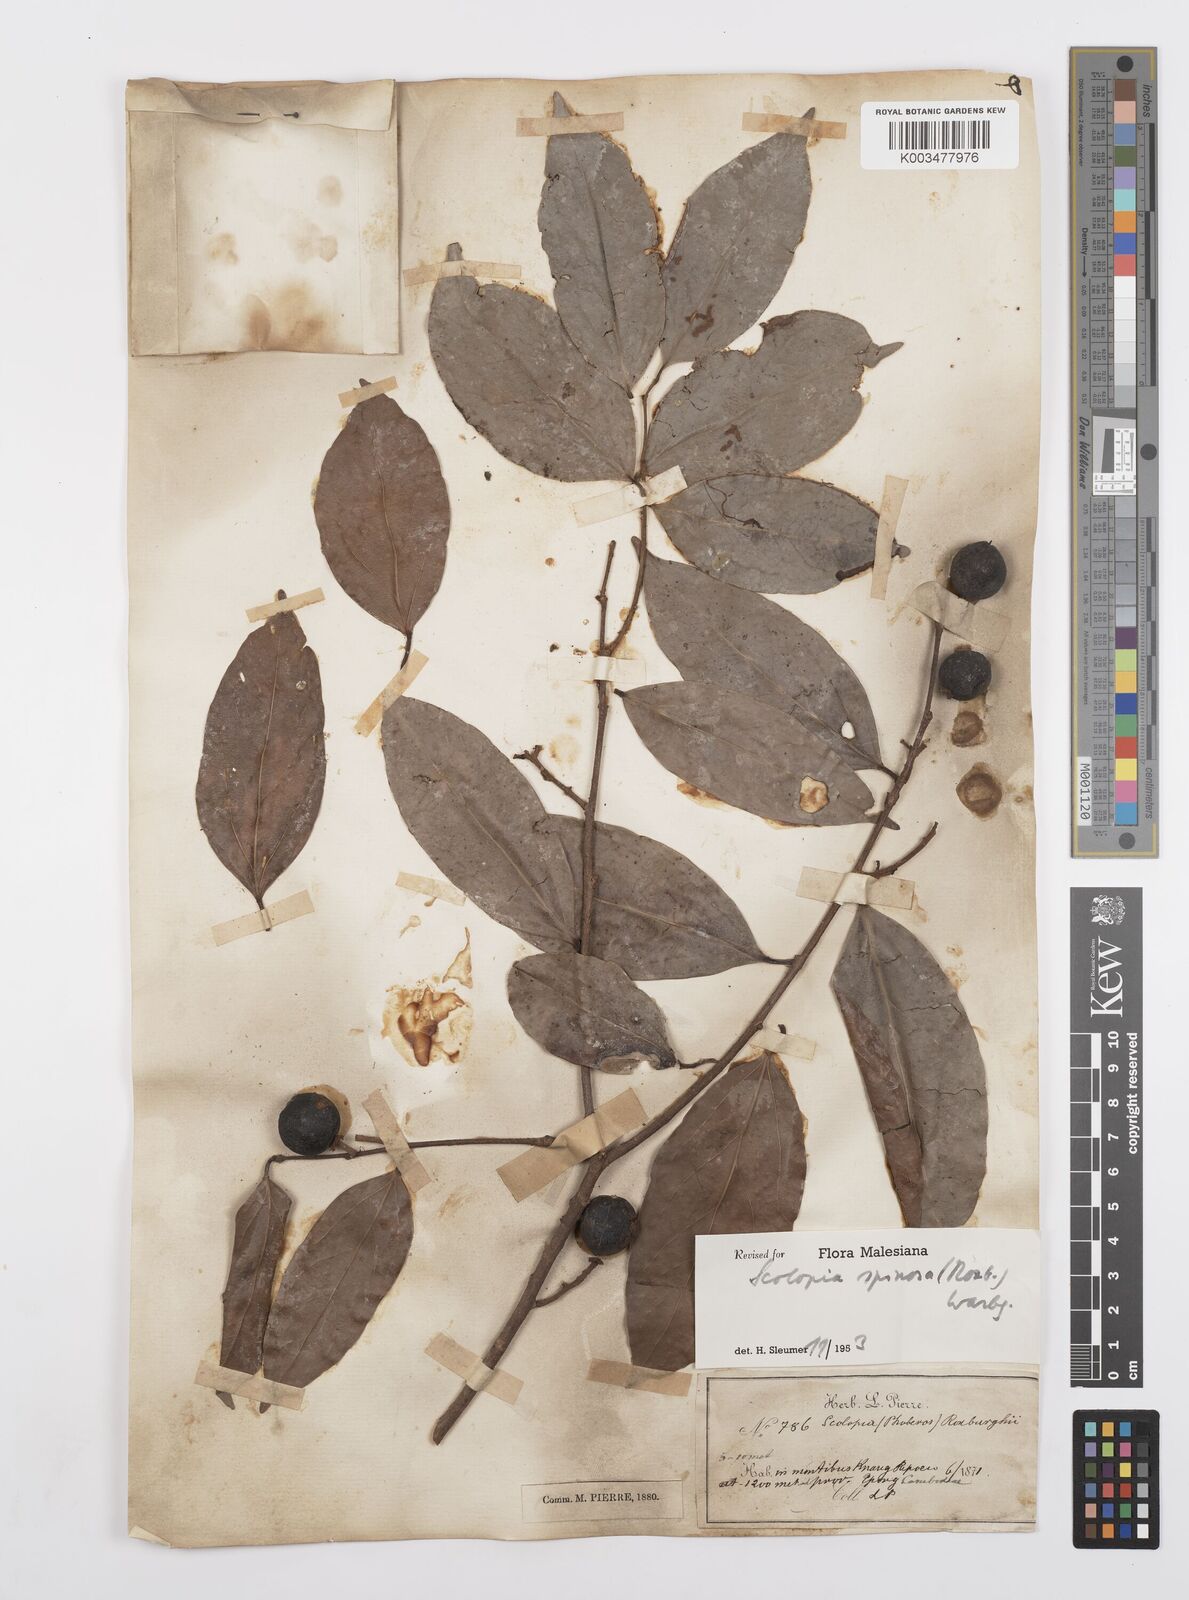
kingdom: Plantae
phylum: Tracheophyta
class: Magnoliopsida
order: Malpighiales
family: Salicaceae
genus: Scolopia
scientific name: Scolopia spinosa
